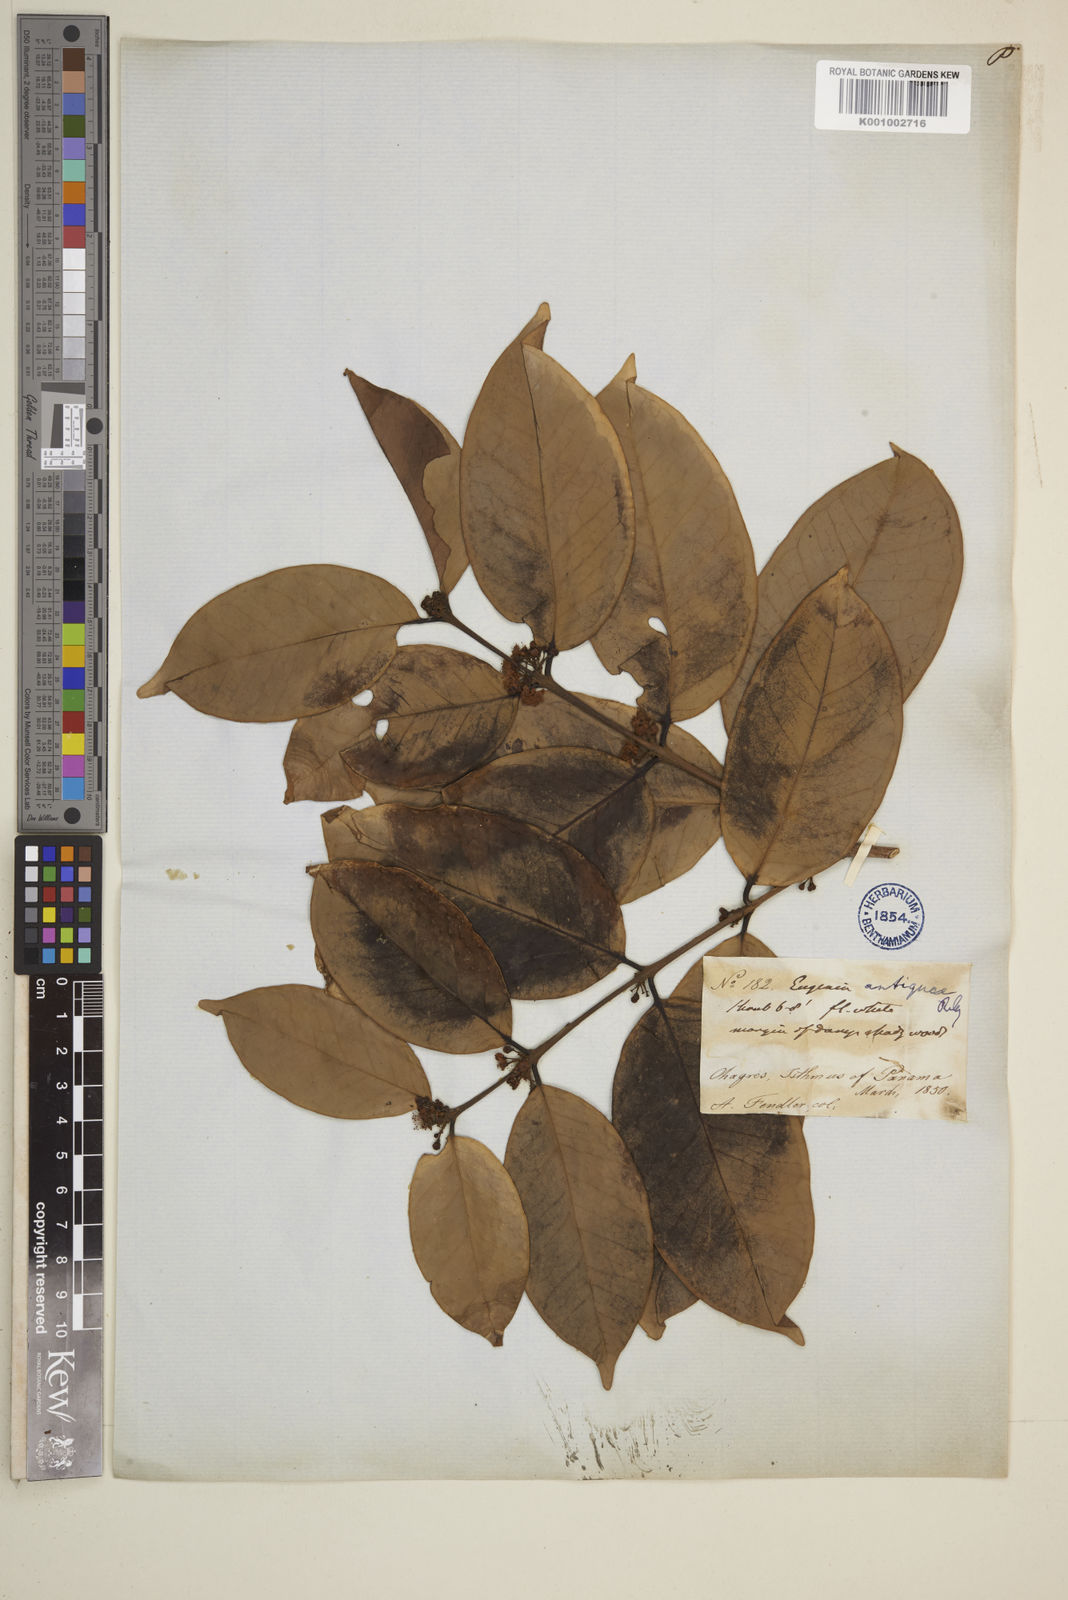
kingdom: Plantae
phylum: Tracheophyta
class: Magnoliopsida
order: Myrtales
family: Myrtaceae
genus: Eugenia
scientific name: Eugenia acapulcensis
